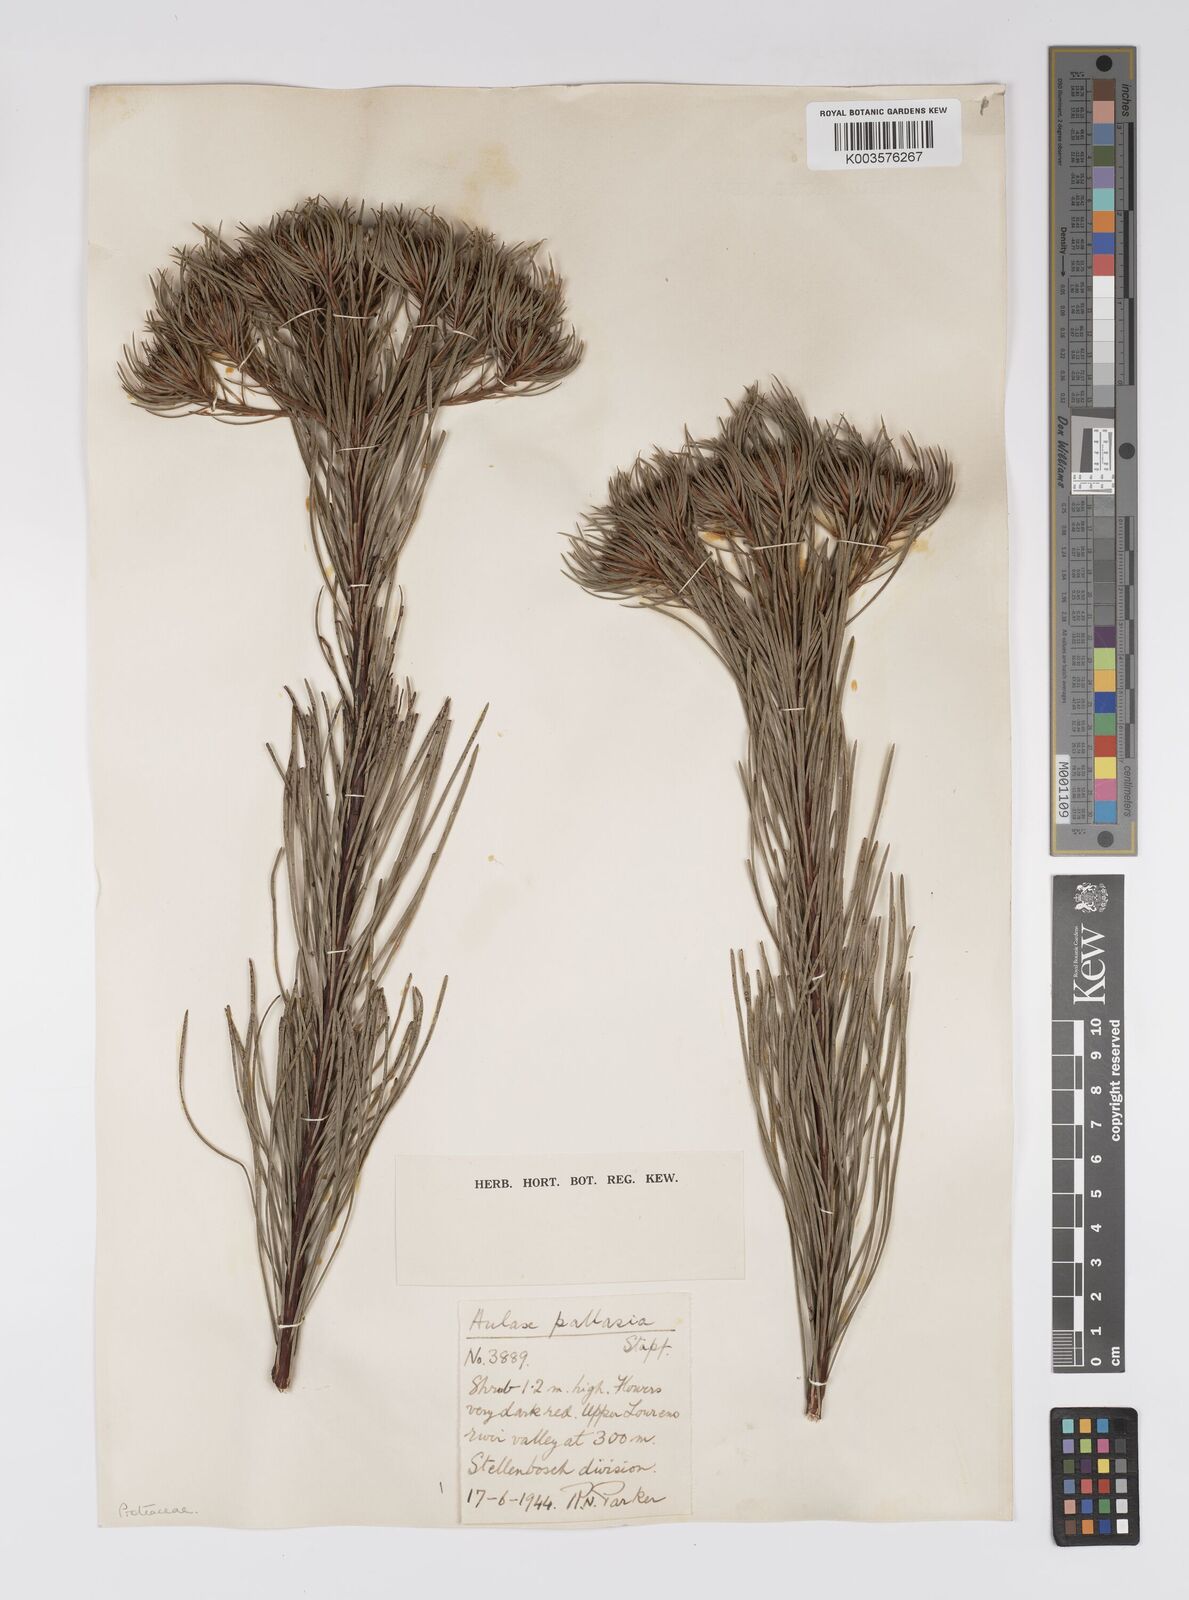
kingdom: Plantae
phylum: Tracheophyta
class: Magnoliopsida
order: Proteales
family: Proteaceae
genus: Aulax
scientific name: Aulax pallasia
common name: Needle-leaf featherbush
